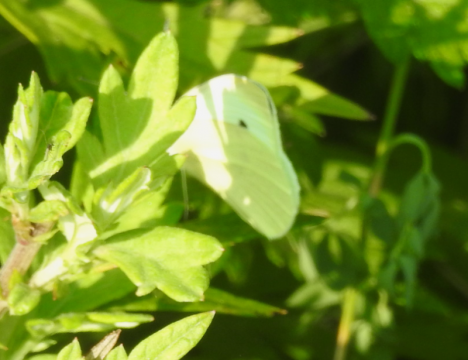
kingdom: Animalia
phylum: Arthropoda
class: Insecta
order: Lepidoptera
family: Pieridae
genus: Pieris
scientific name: Pieris rapae
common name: Cabbage White
